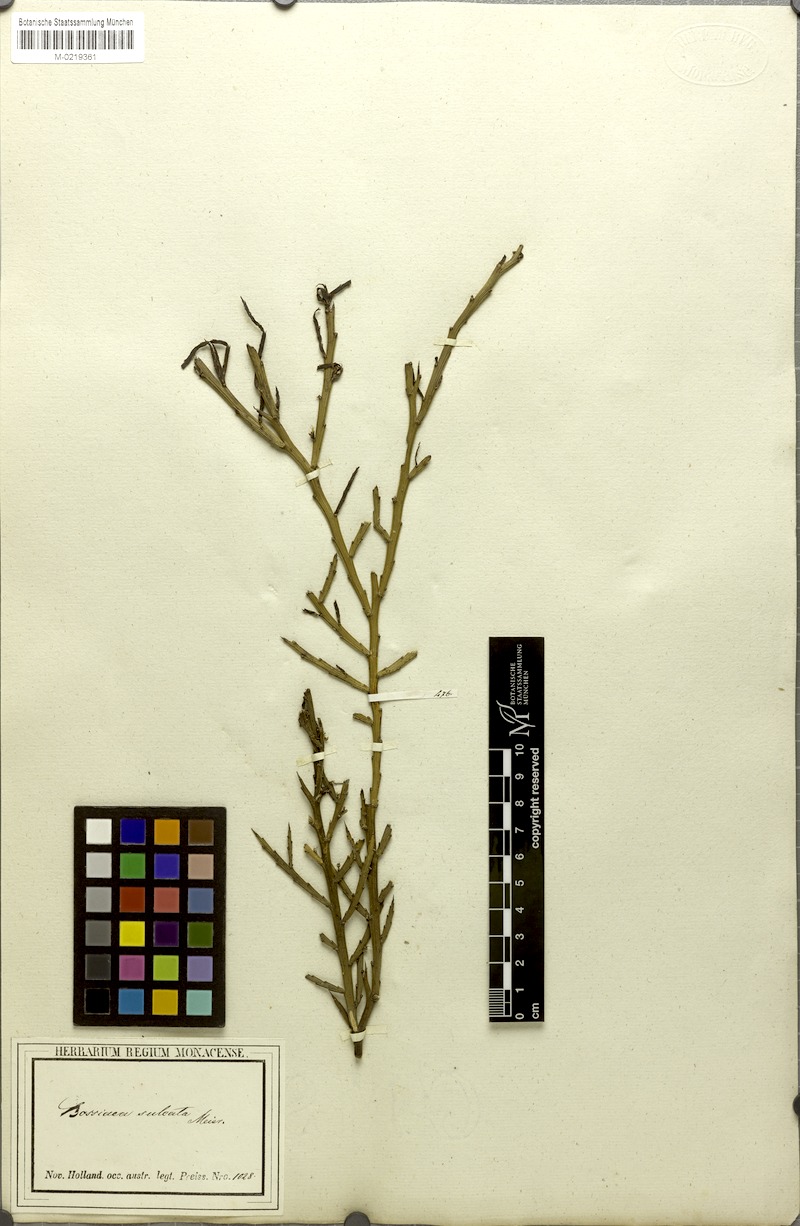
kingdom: Plantae
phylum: Tracheophyta
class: Magnoliopsida
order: Fabales
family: Fabaceae
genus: Templetonia
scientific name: Templetonia sulcata
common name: Flat mallee-pea
